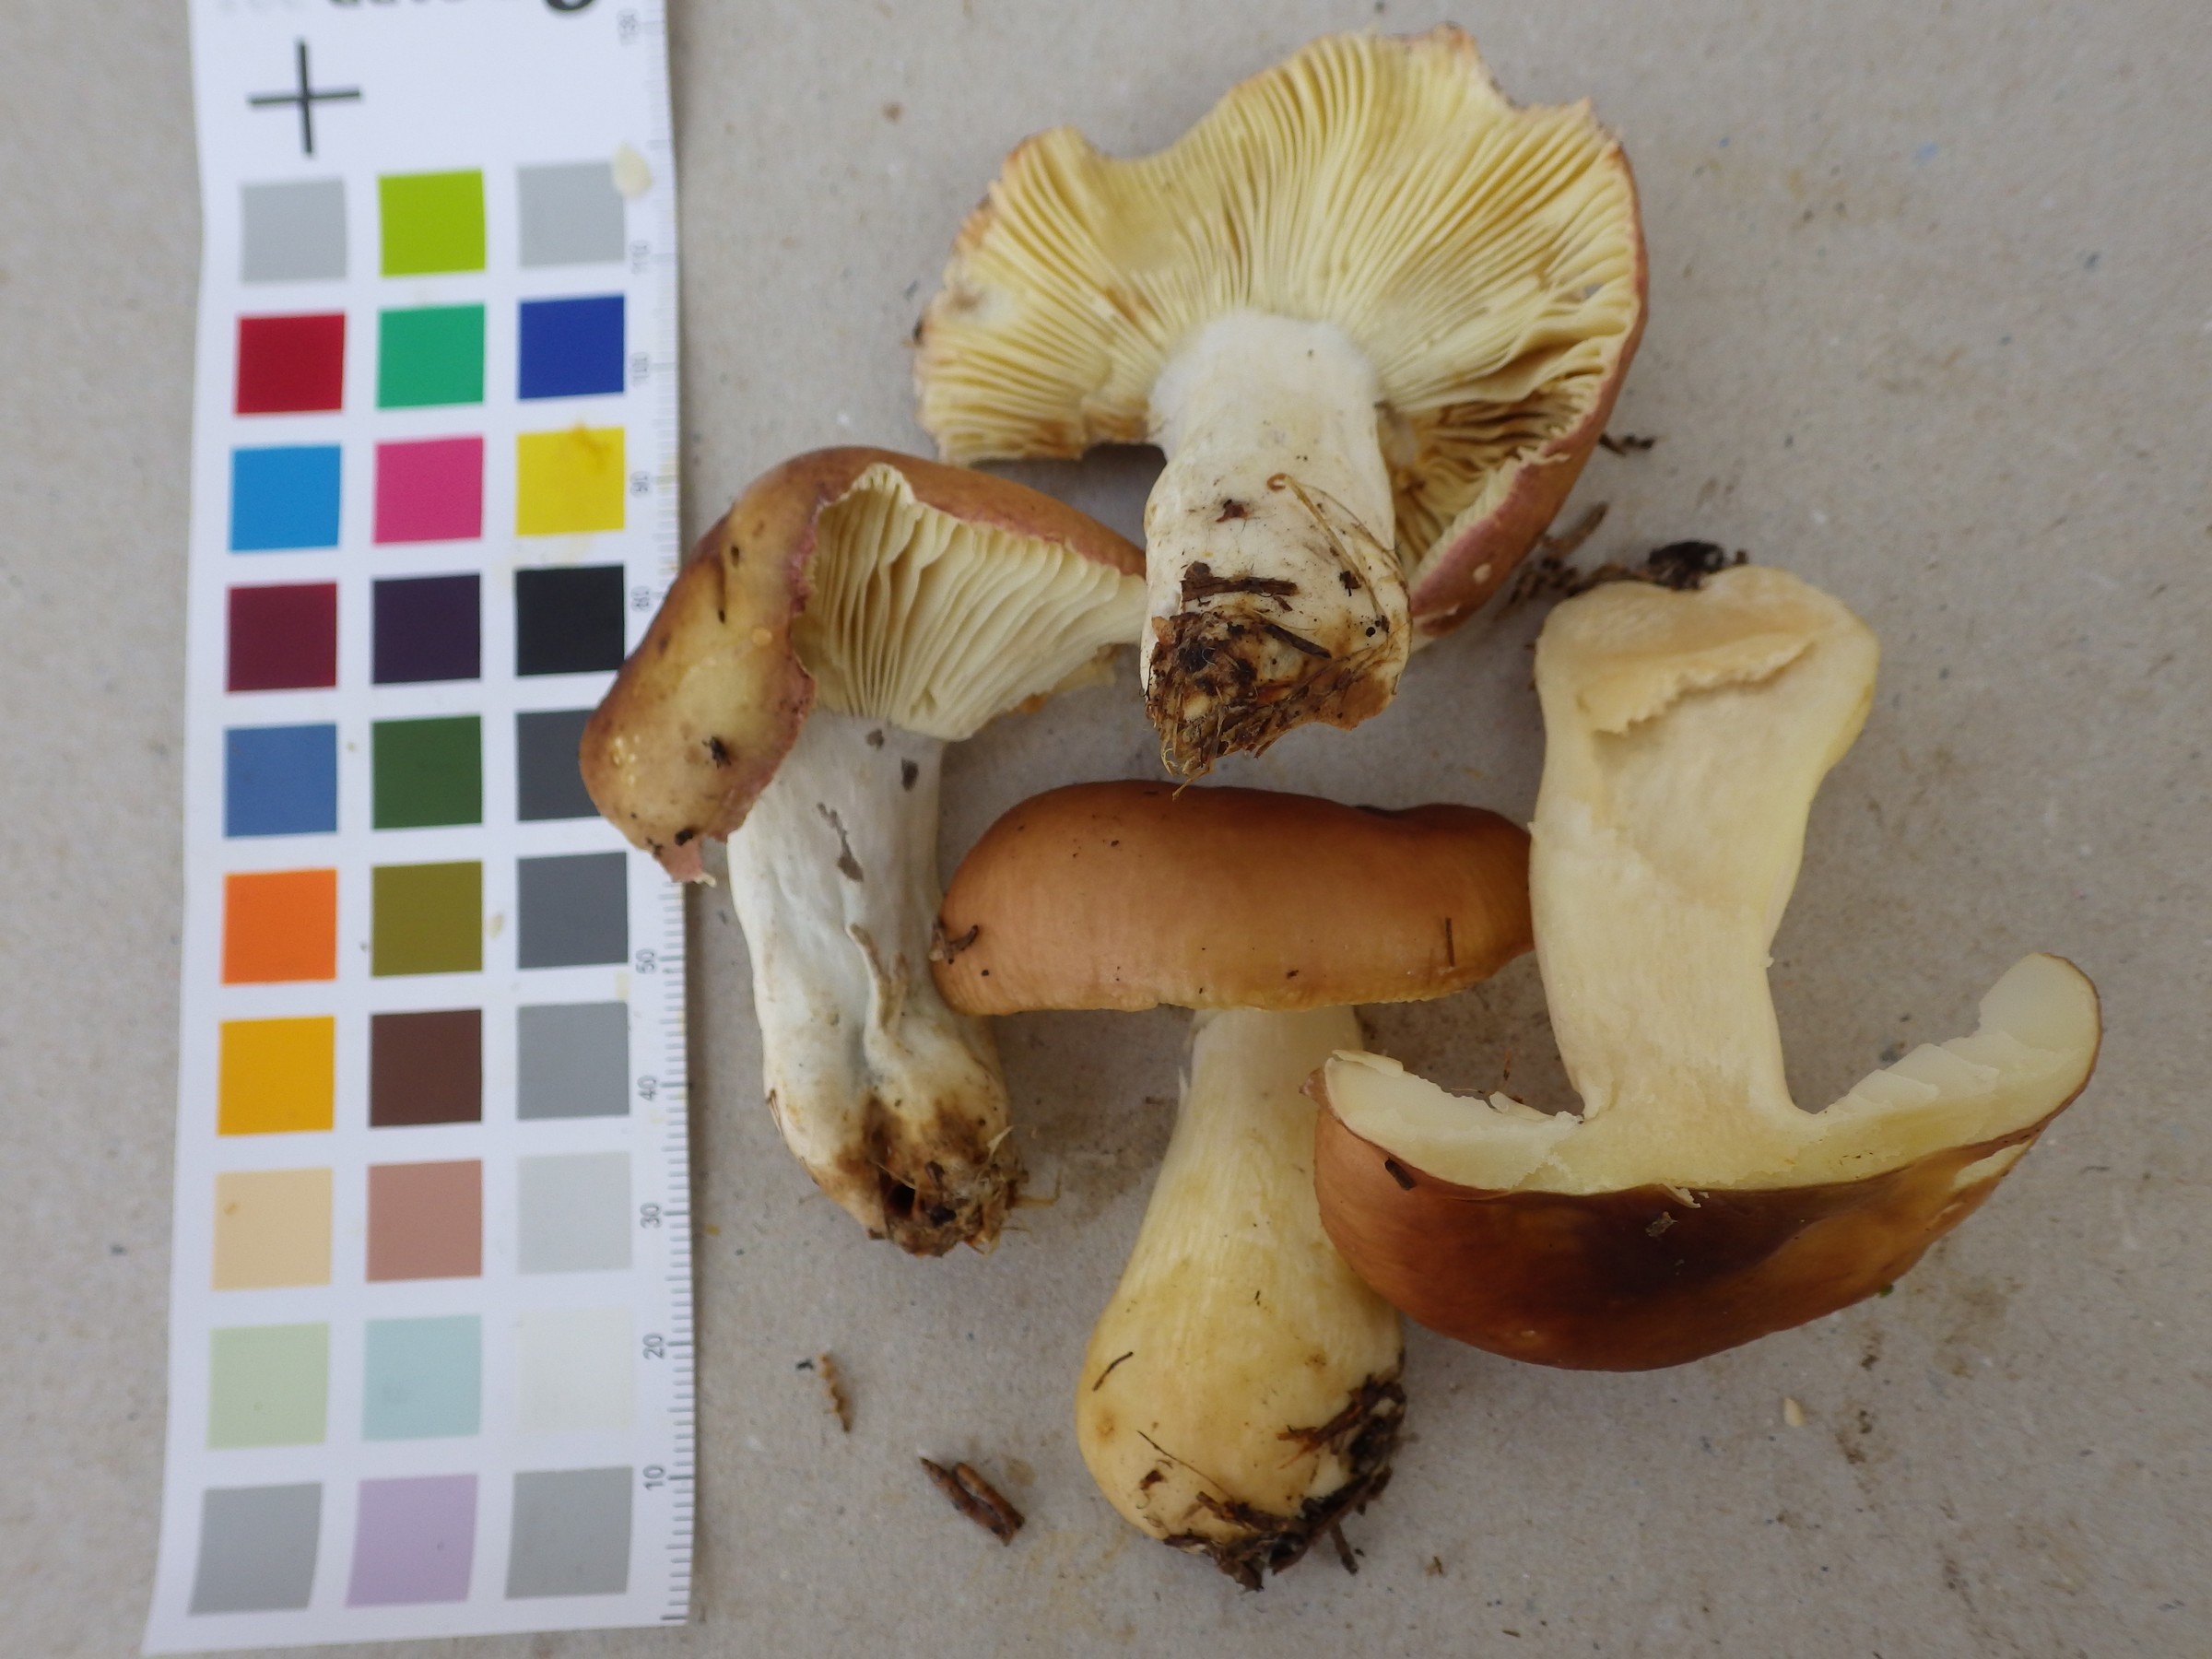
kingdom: Fungi
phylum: Basidiomycota
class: Agaricomycetes
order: Russulales
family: Russulaceae
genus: Russula
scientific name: Russula vinosa
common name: Darkening brittlegill
